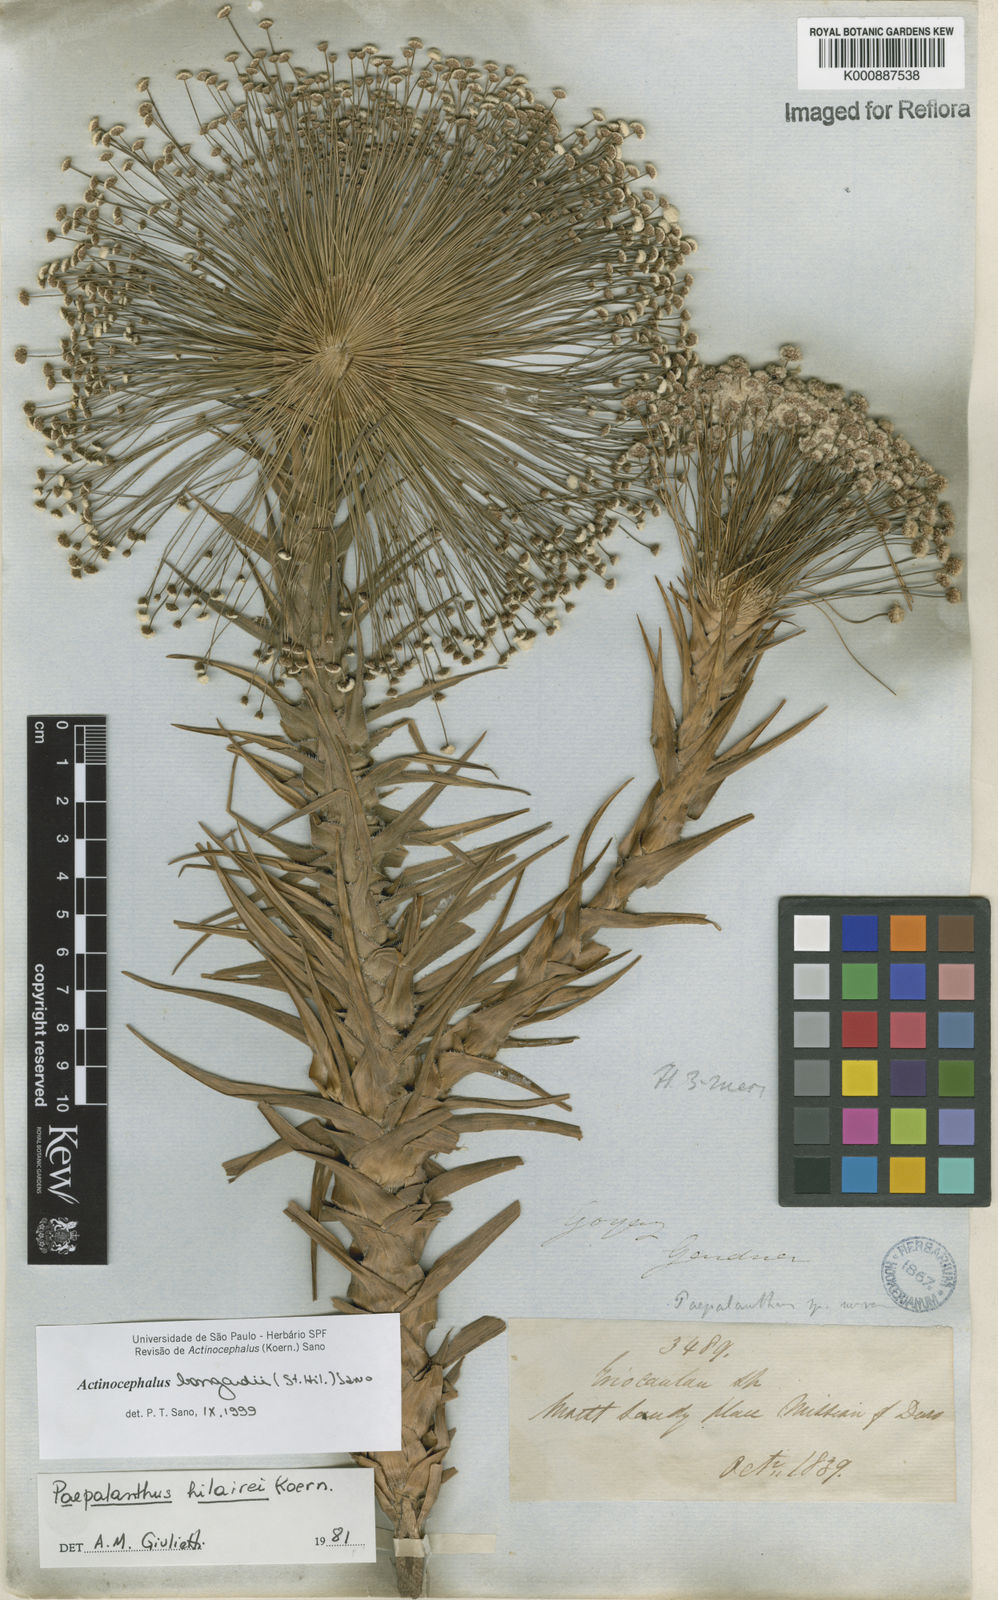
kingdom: Plantae
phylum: Tracheophyta
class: Liliopsida
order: Poales
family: Eriocaulaceae
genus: Paepalanthus
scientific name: Paepalanthus hilairei
